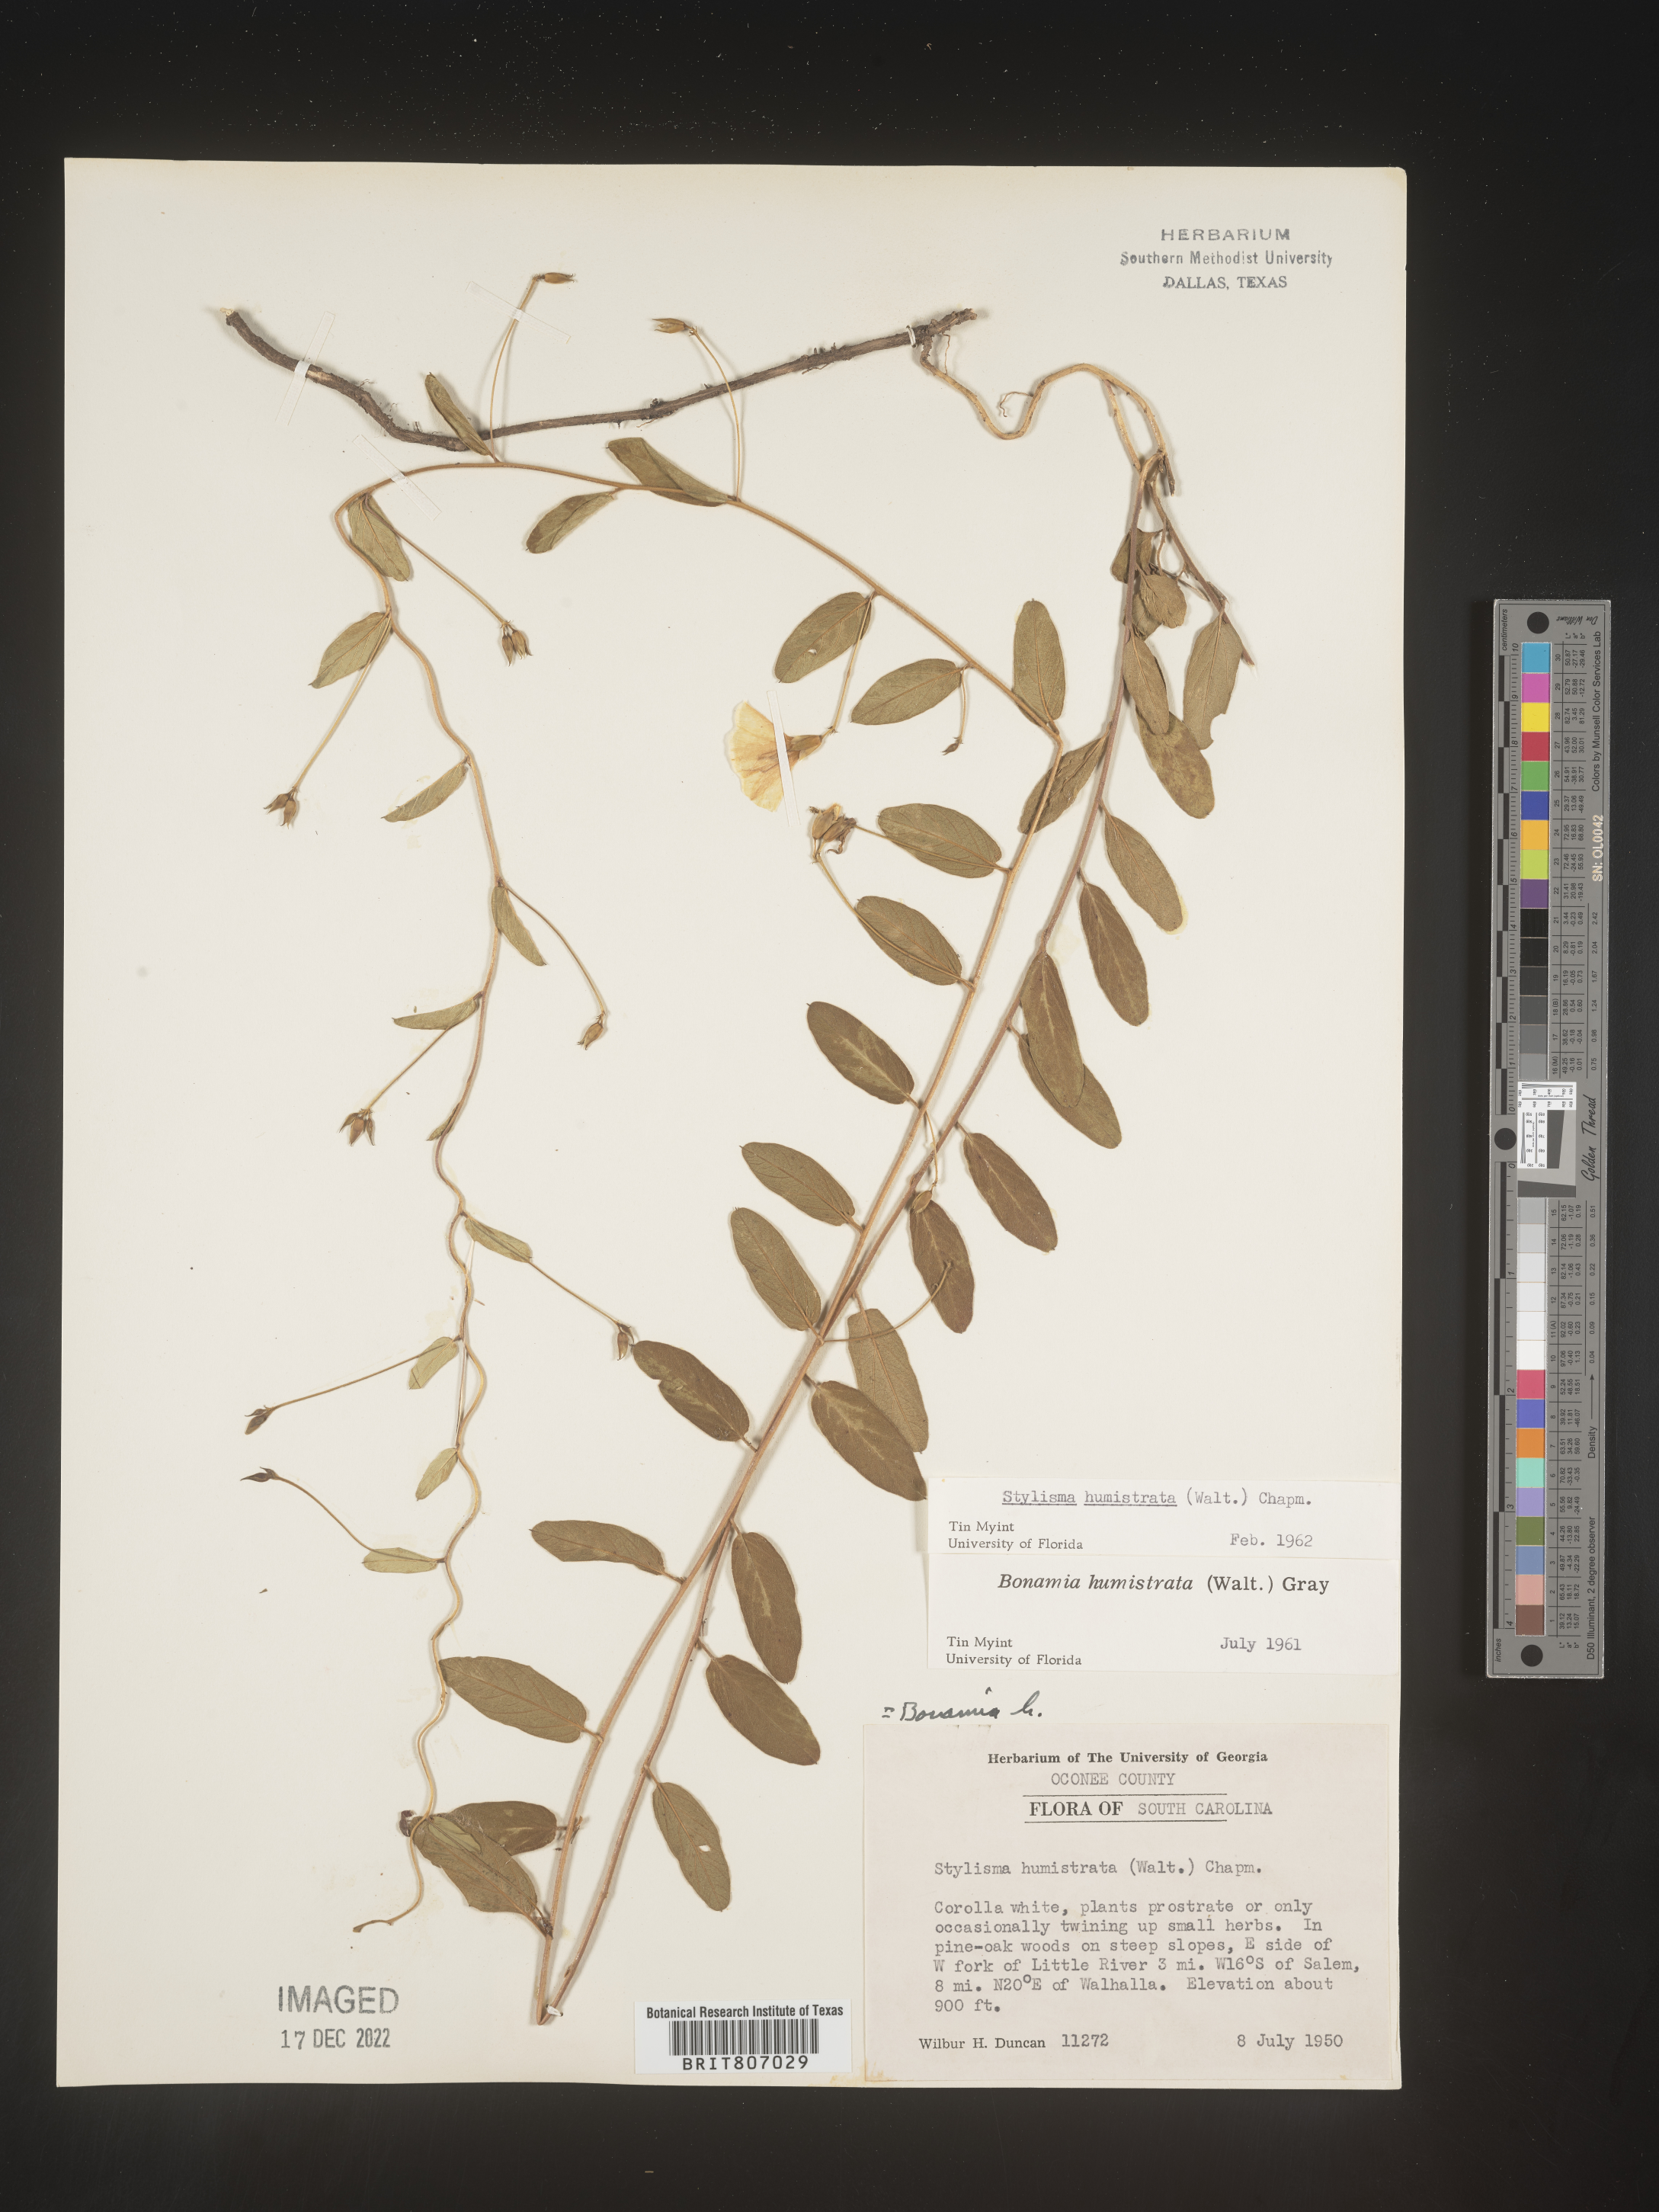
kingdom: Plantae
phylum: Tracheophyta
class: Magnoliopsida
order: Solanales
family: Convolvulaceae
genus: Stylisma
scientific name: Stylisma humistrata
